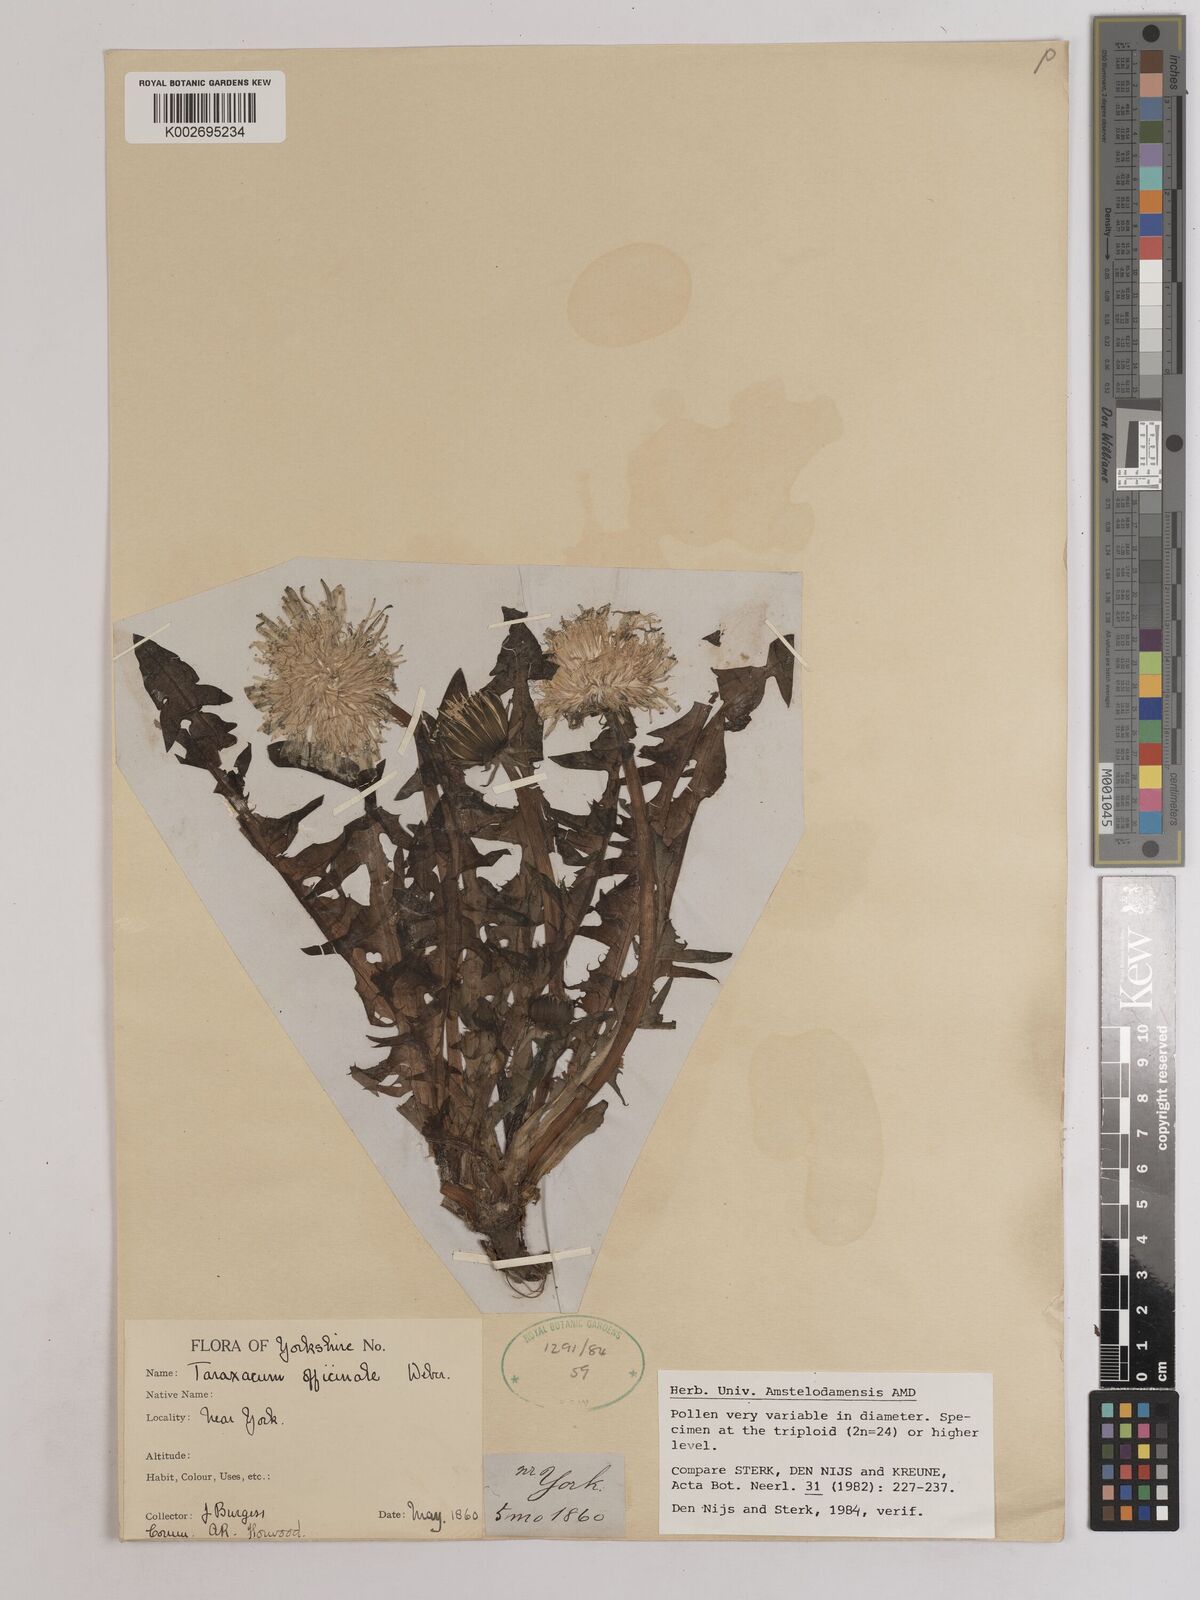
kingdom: Plantae
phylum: Tracheophyta
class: Magnoliopsida
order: Asterales
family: Asteraceae
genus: Taraxacum
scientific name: Taraxacum officinale
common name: Common dandelion
